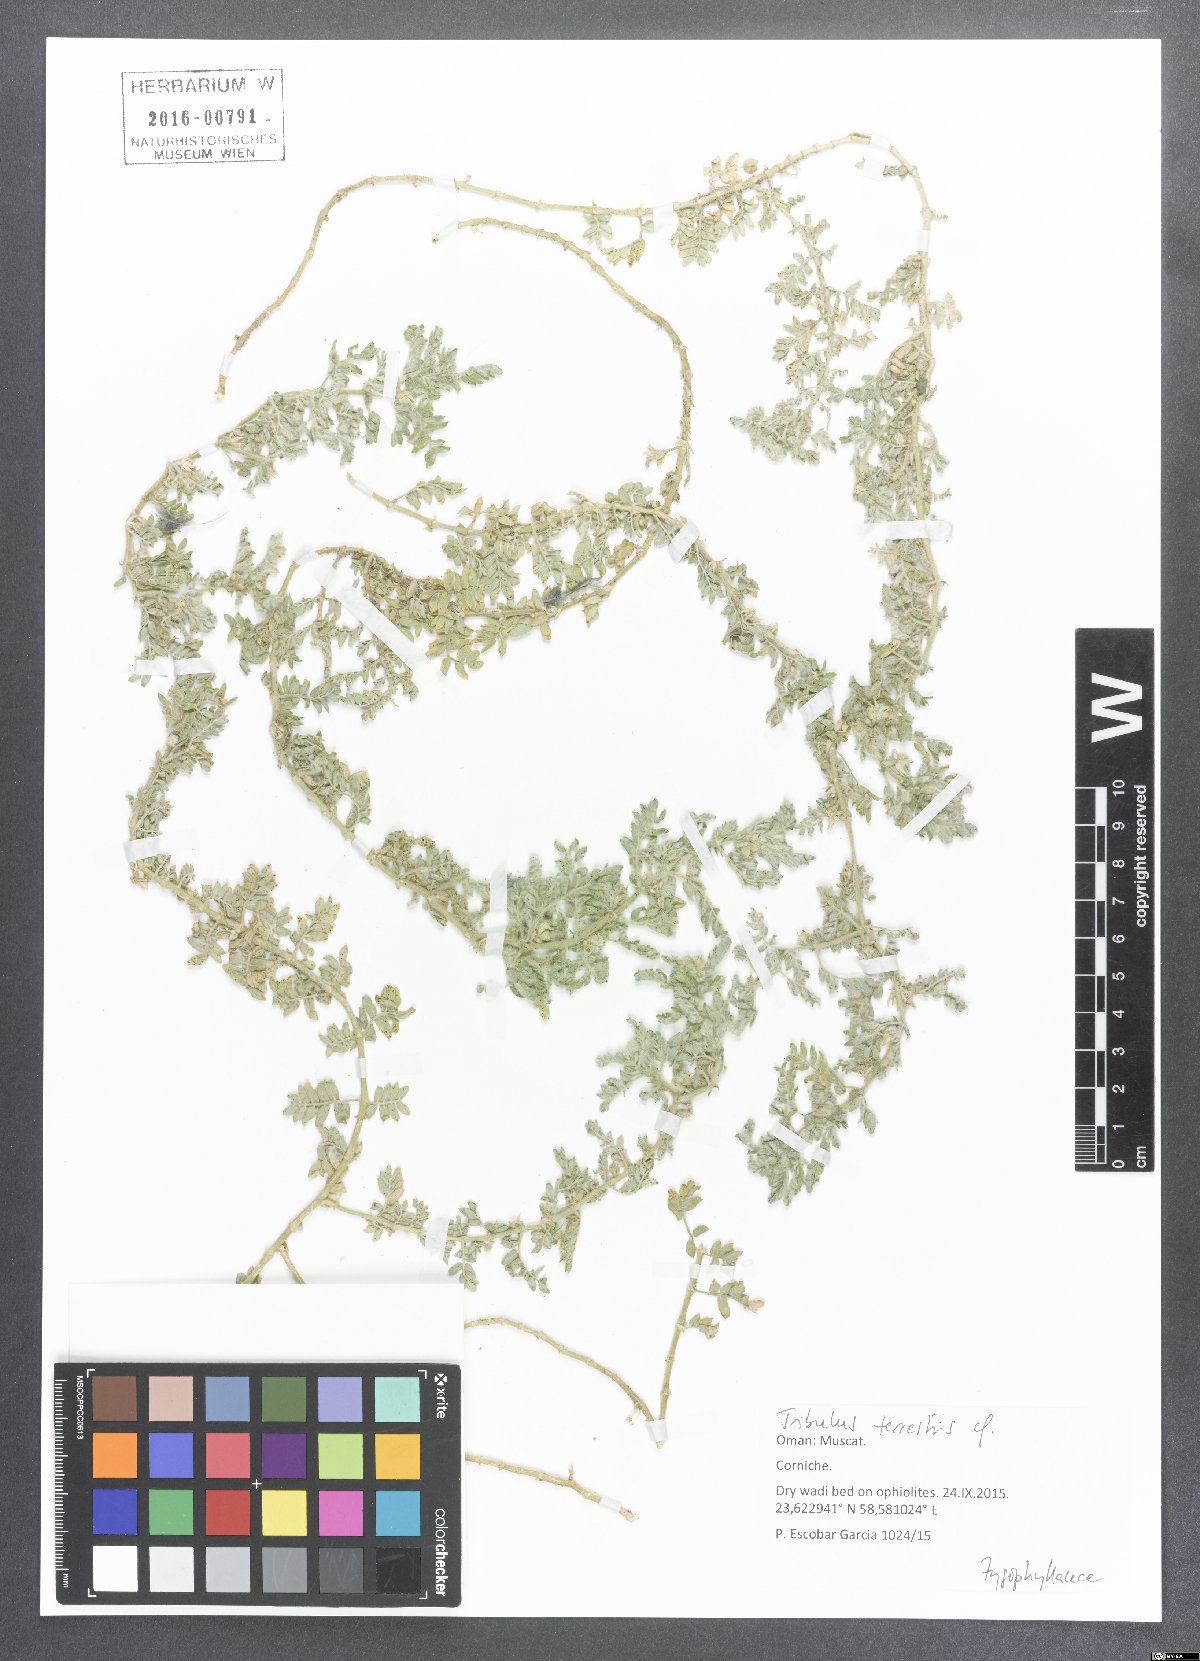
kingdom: Plantae
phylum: Tracheophyta
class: Magnoliopsida
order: Zygophyllales
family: Zygophyllaceae
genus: Tribulus
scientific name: Tribulus terrestris
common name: Puncturevine
